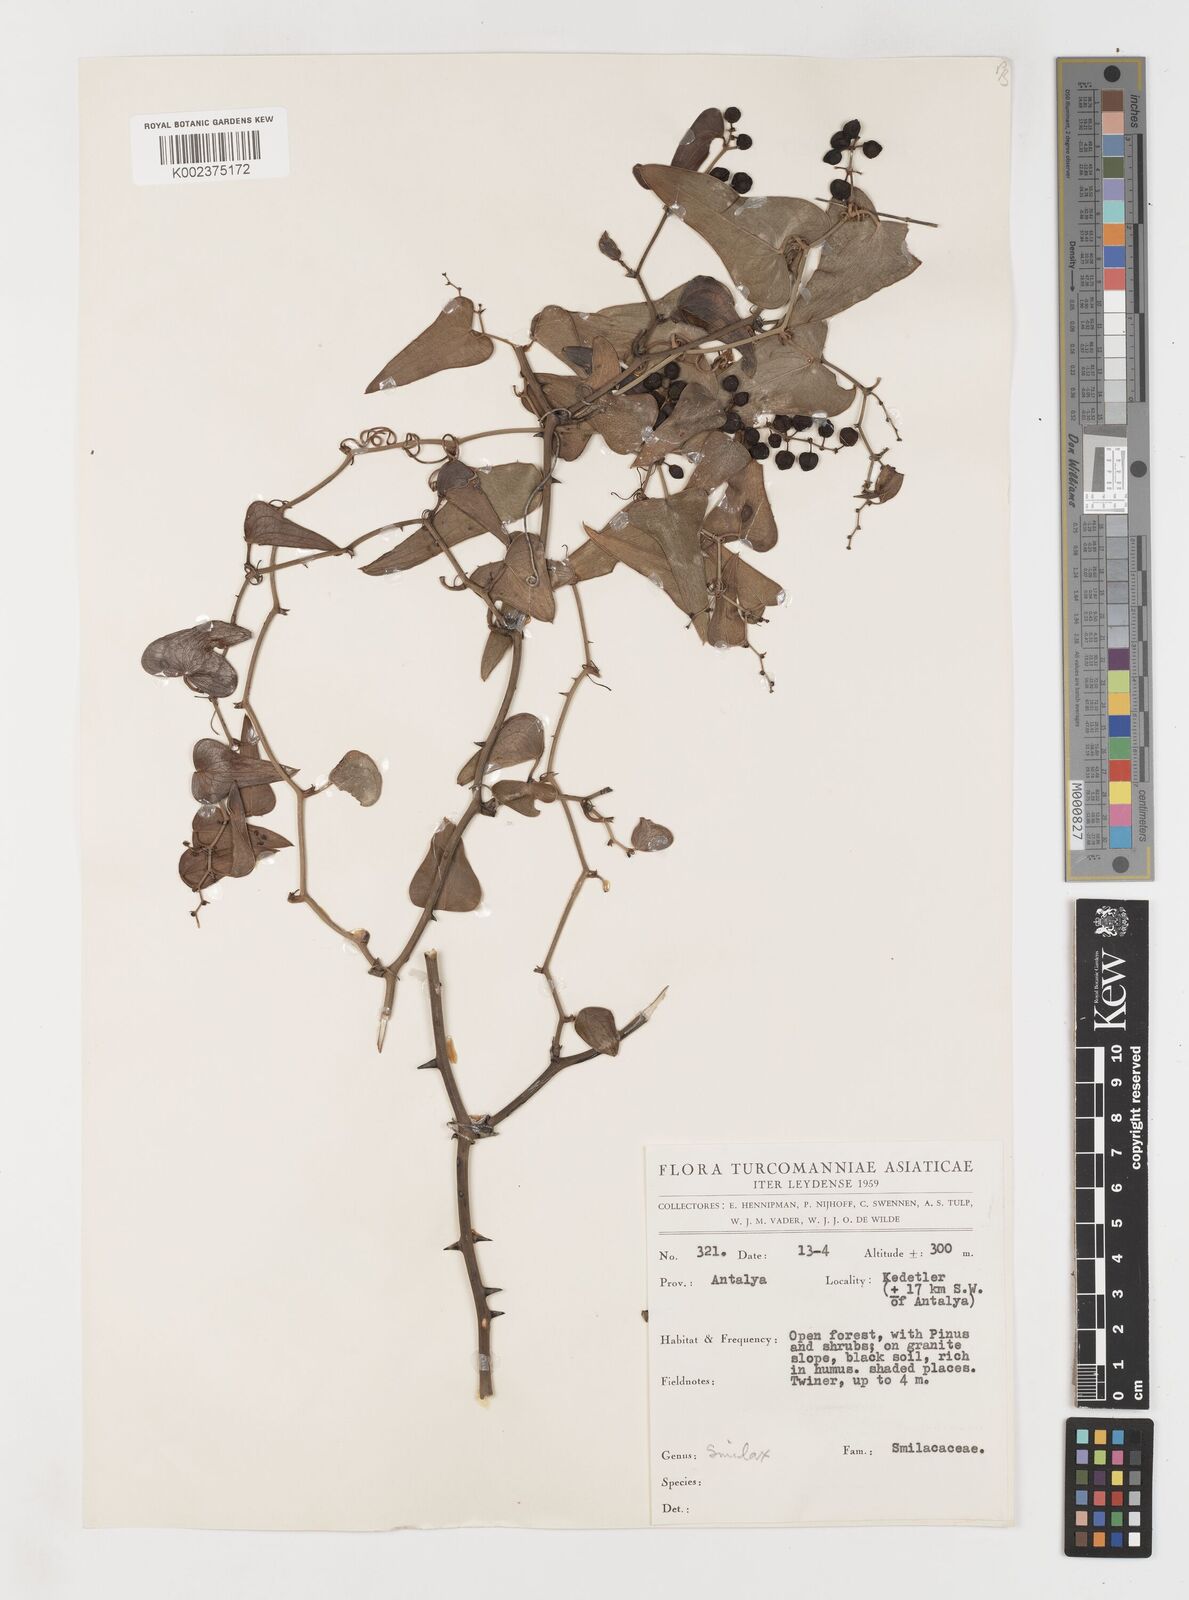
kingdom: Plantae
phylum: Tracheophyta
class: Liliopsida
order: Liliales
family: Smilacaceae
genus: Smilax
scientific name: Smilax aspera
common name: Common smilax
